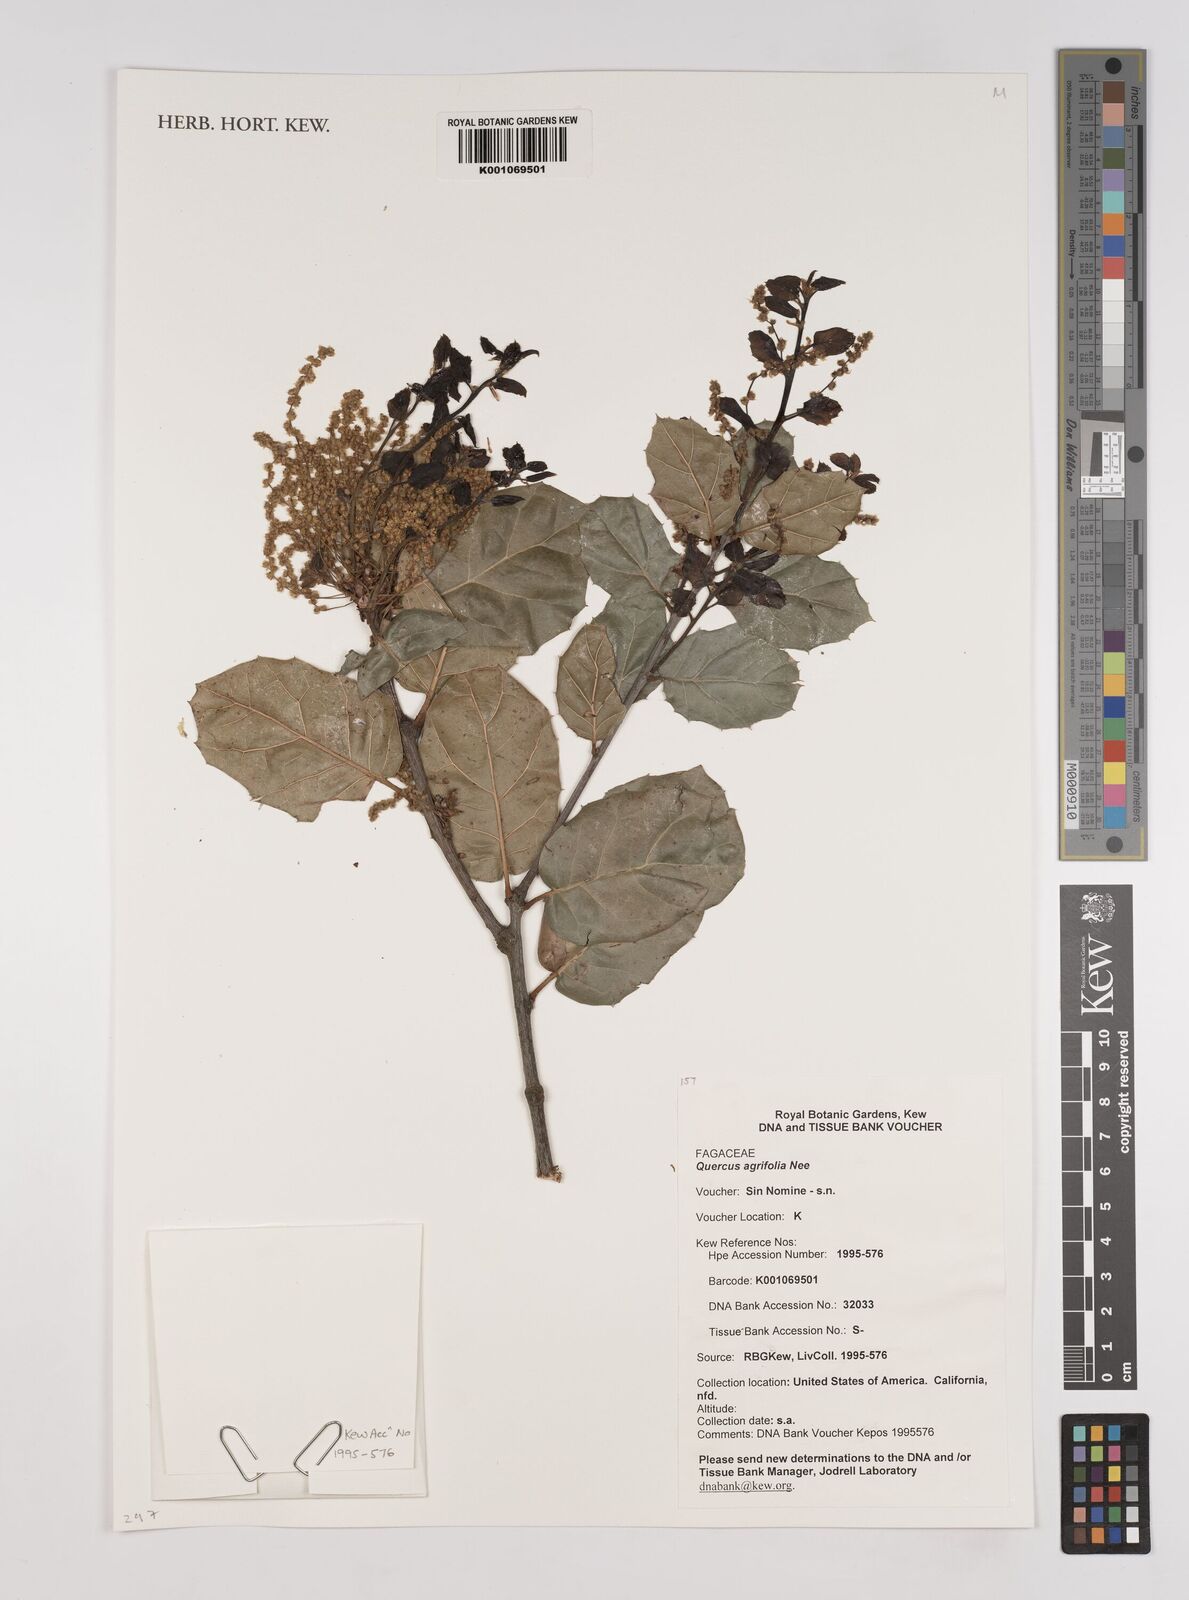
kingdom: Plantae
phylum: Tracheophyta
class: Magnoliopsida
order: Fagales
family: Fagaceae
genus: Quercus
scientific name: Quercus agrifolia
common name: California live oak
